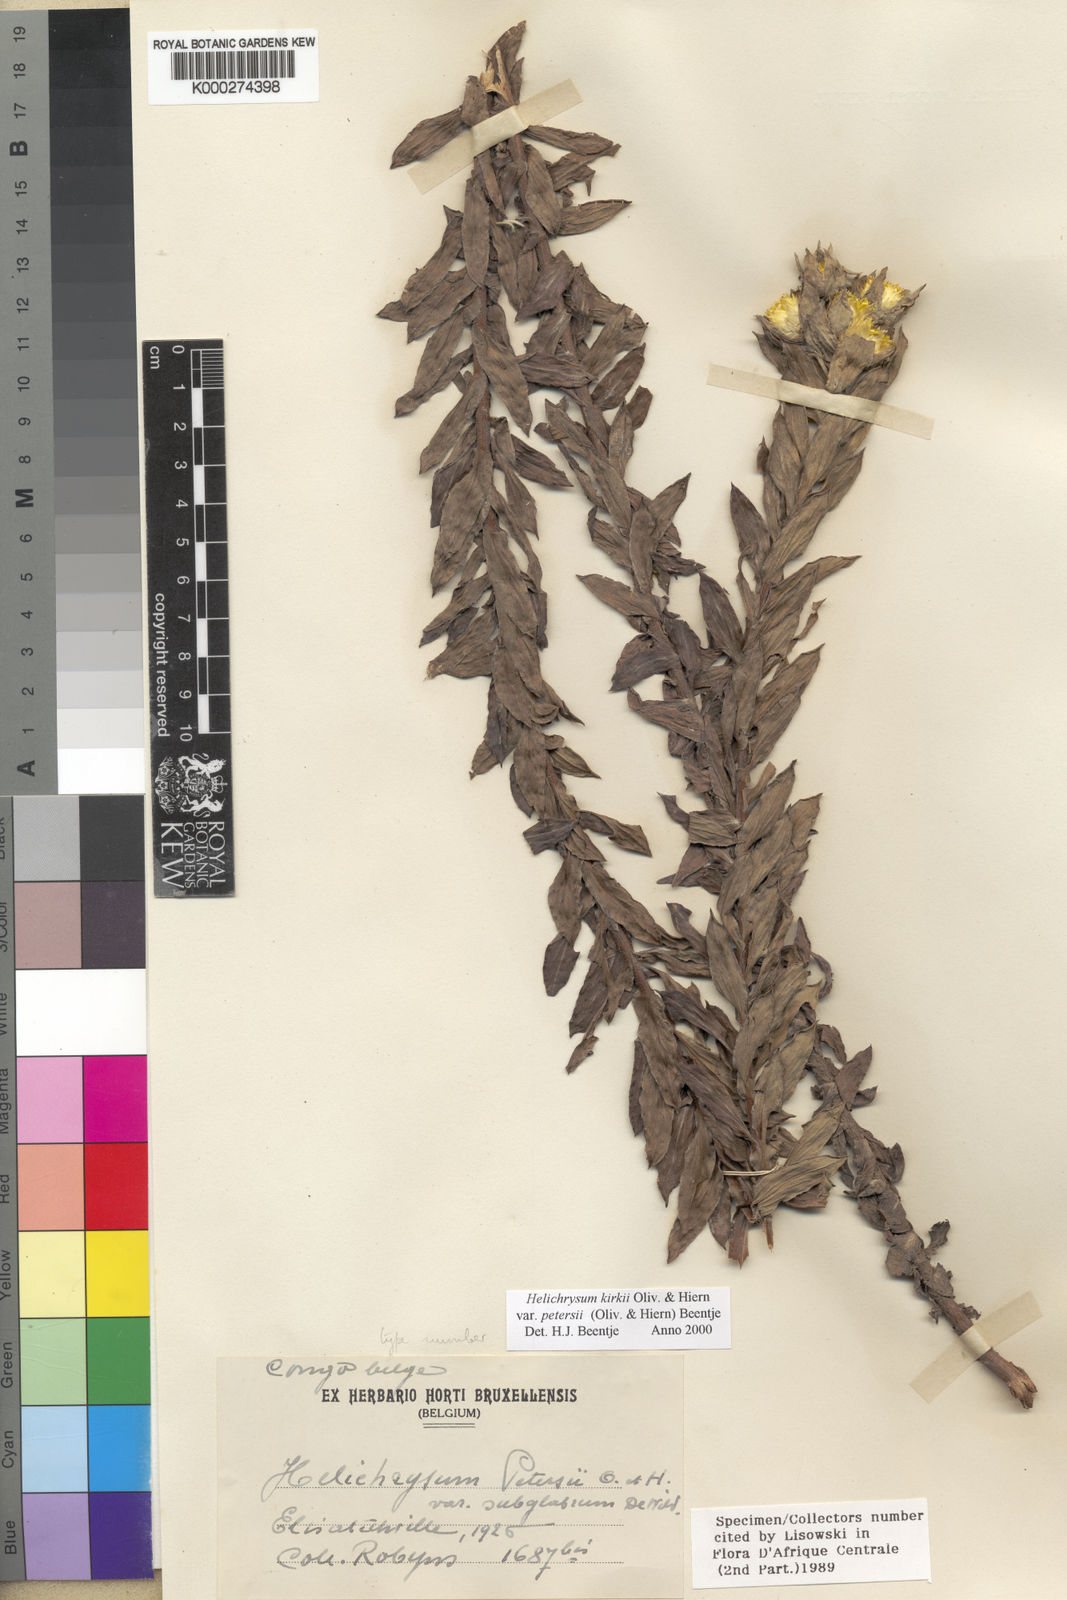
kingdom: Plantae
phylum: Tracheophyta
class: Magnoliopsida
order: Asterales
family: Asteraceae
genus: Helichrysum
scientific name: Helichrysum kirkii
